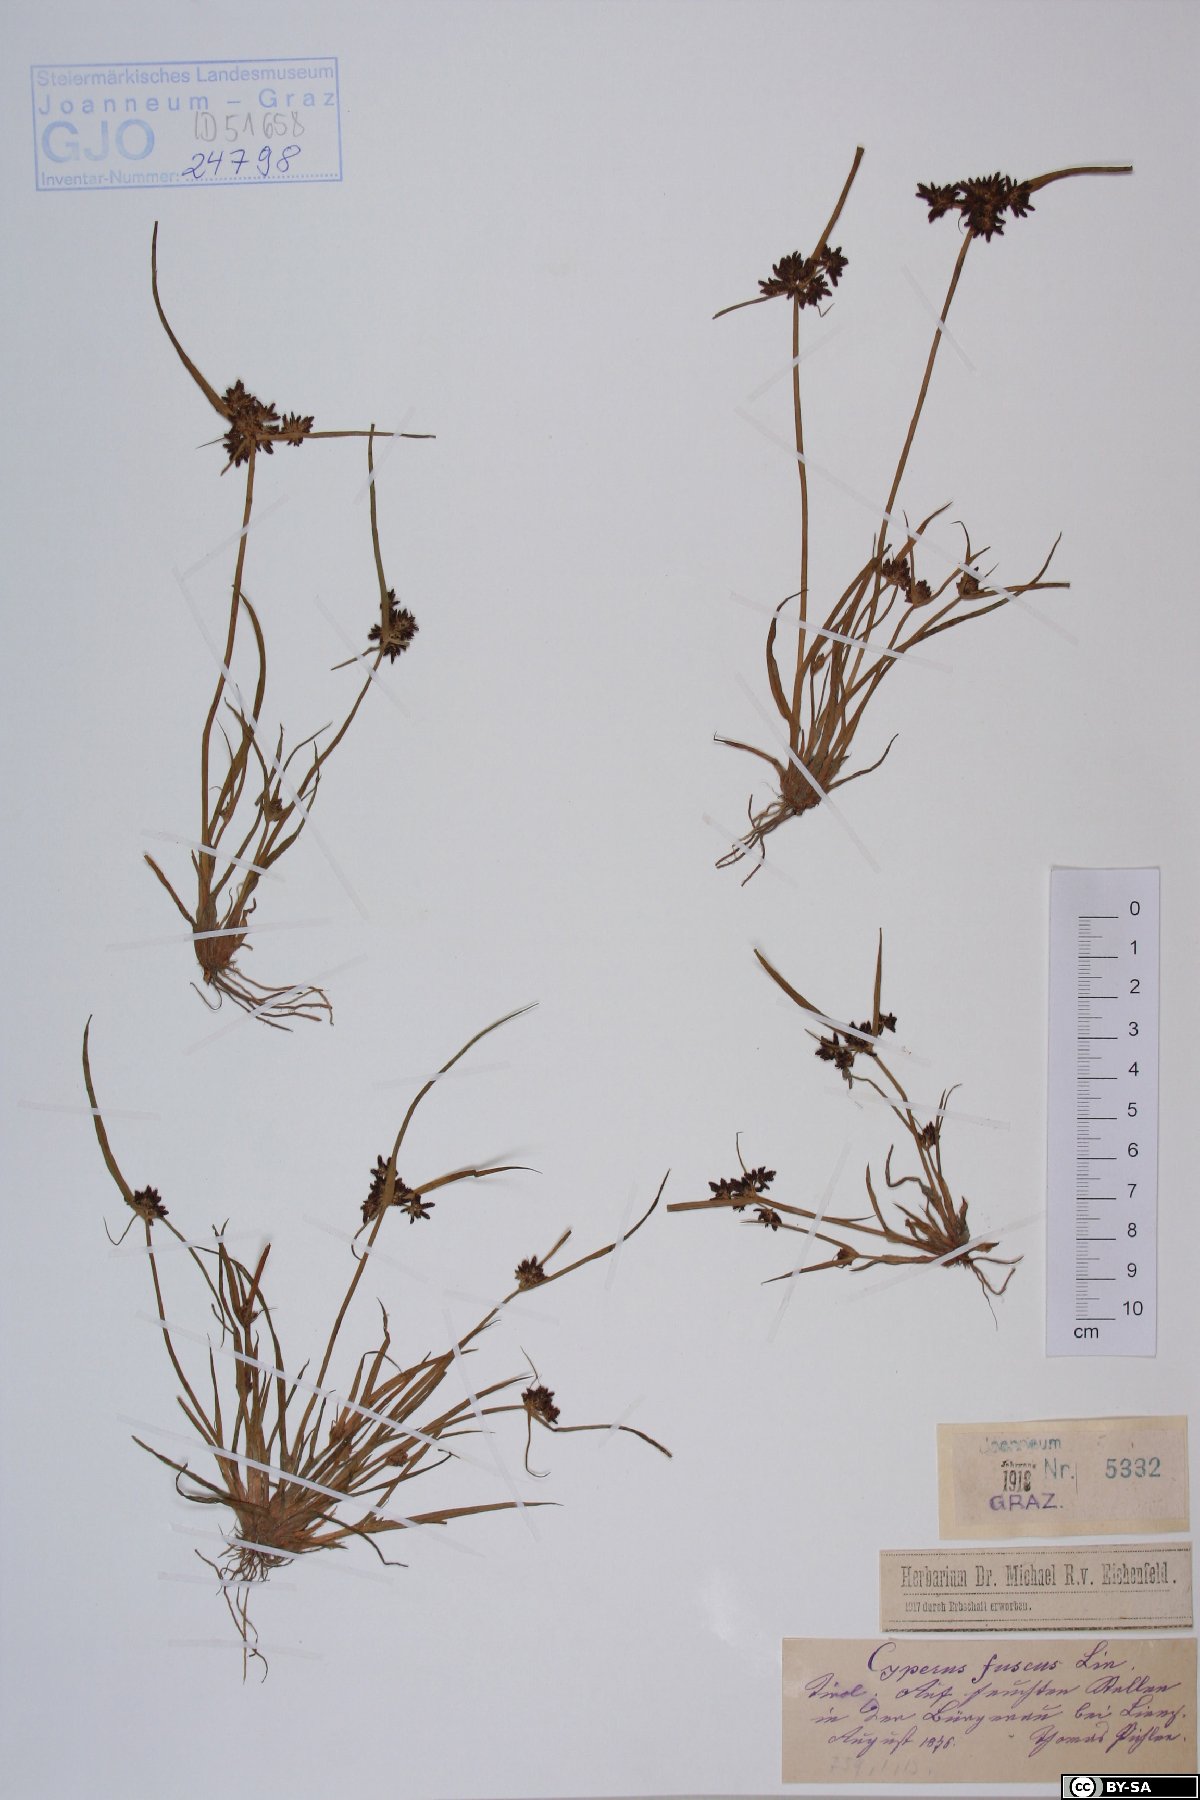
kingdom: Plantae
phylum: Tracheophyta
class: Liliopsida
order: Poales
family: Cyperaceae
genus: Cyperus
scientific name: Cyperus fuscus
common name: Brown galingale
